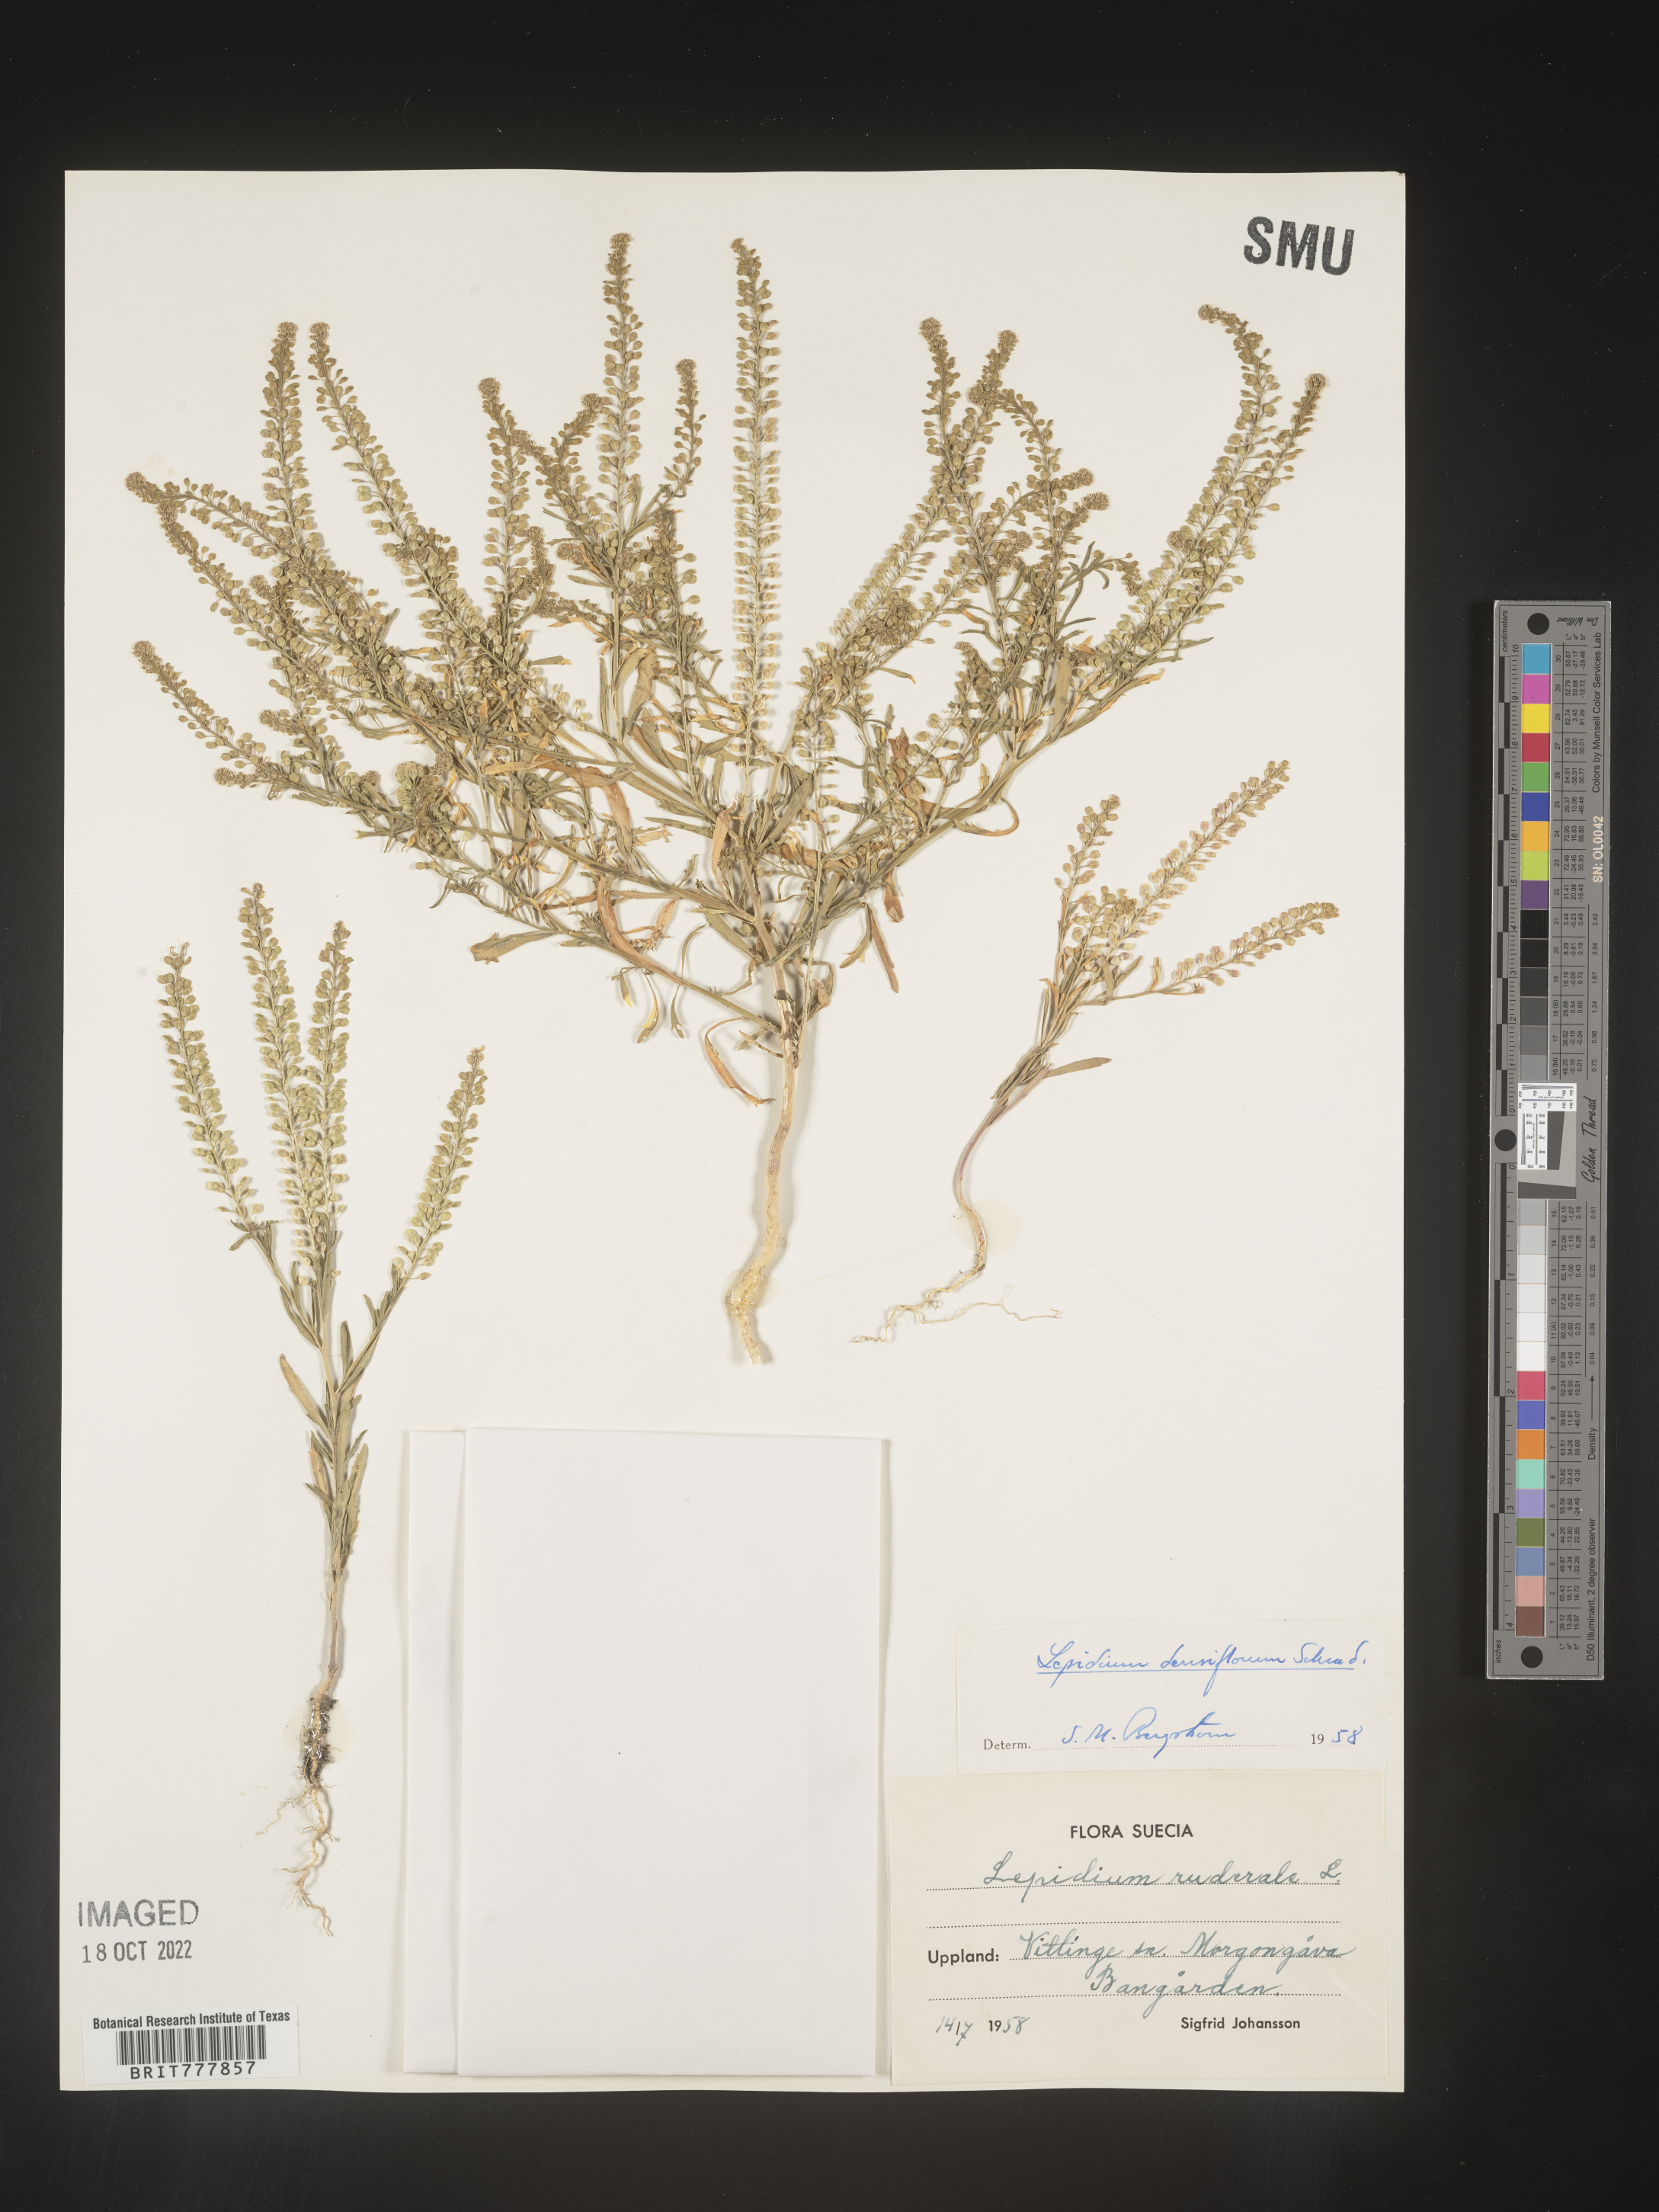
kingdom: Plantae
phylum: Tracheophyta
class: Magnoliopsida
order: Brassicales
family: Brassicaceae
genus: Lepidium
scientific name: Lepidium
